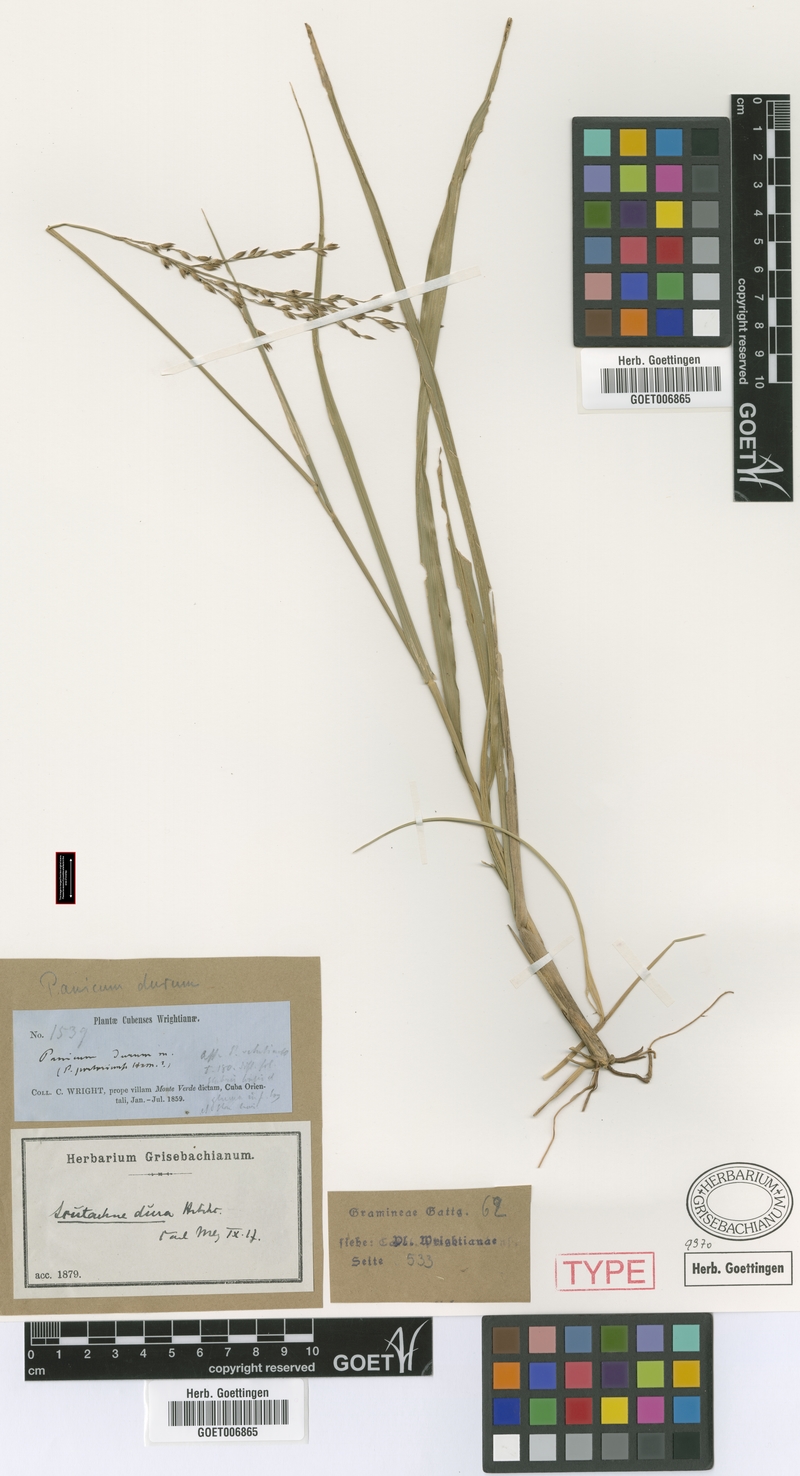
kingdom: Plantae
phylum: Tracheophyta
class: Liliopsida
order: Poales
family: Poaceae
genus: Scutachne
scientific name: Scutachne dura
